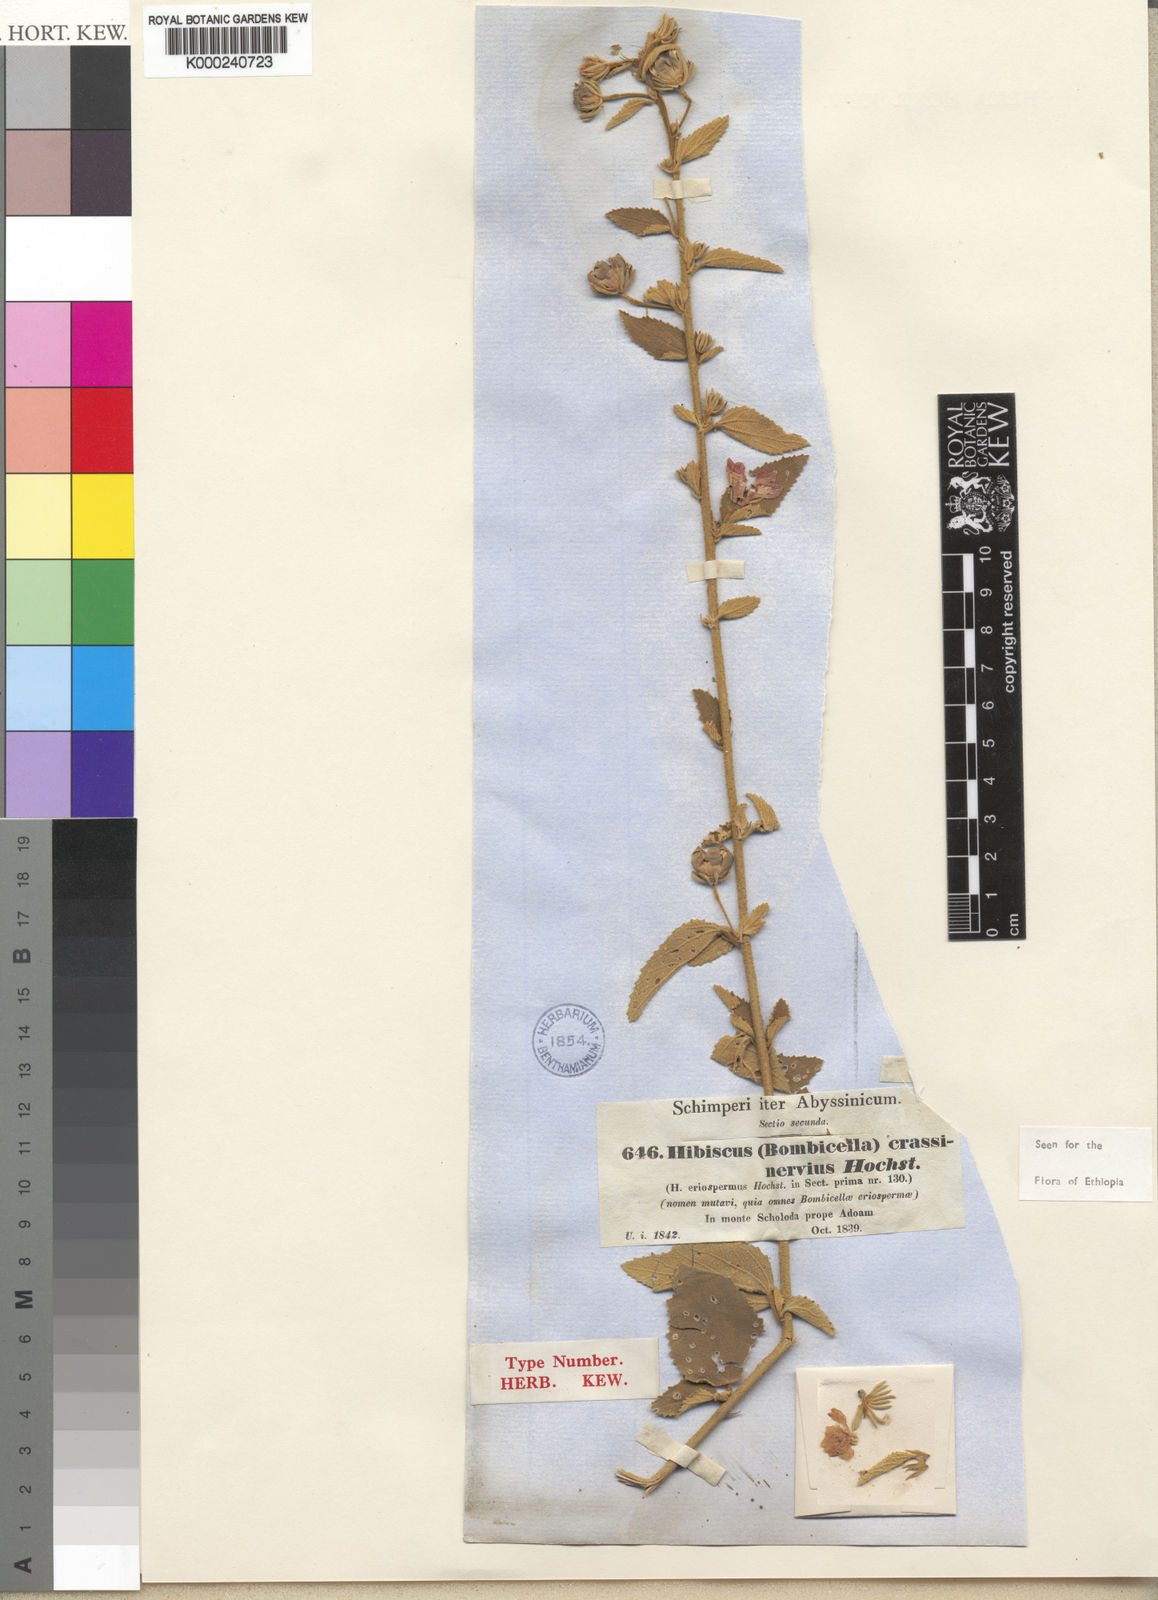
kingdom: Plantae
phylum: Tracheophyta
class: Magnoliopsida
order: Malvales
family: Malvaceae
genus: Hibiscus
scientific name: Hibiscus crassinervius
